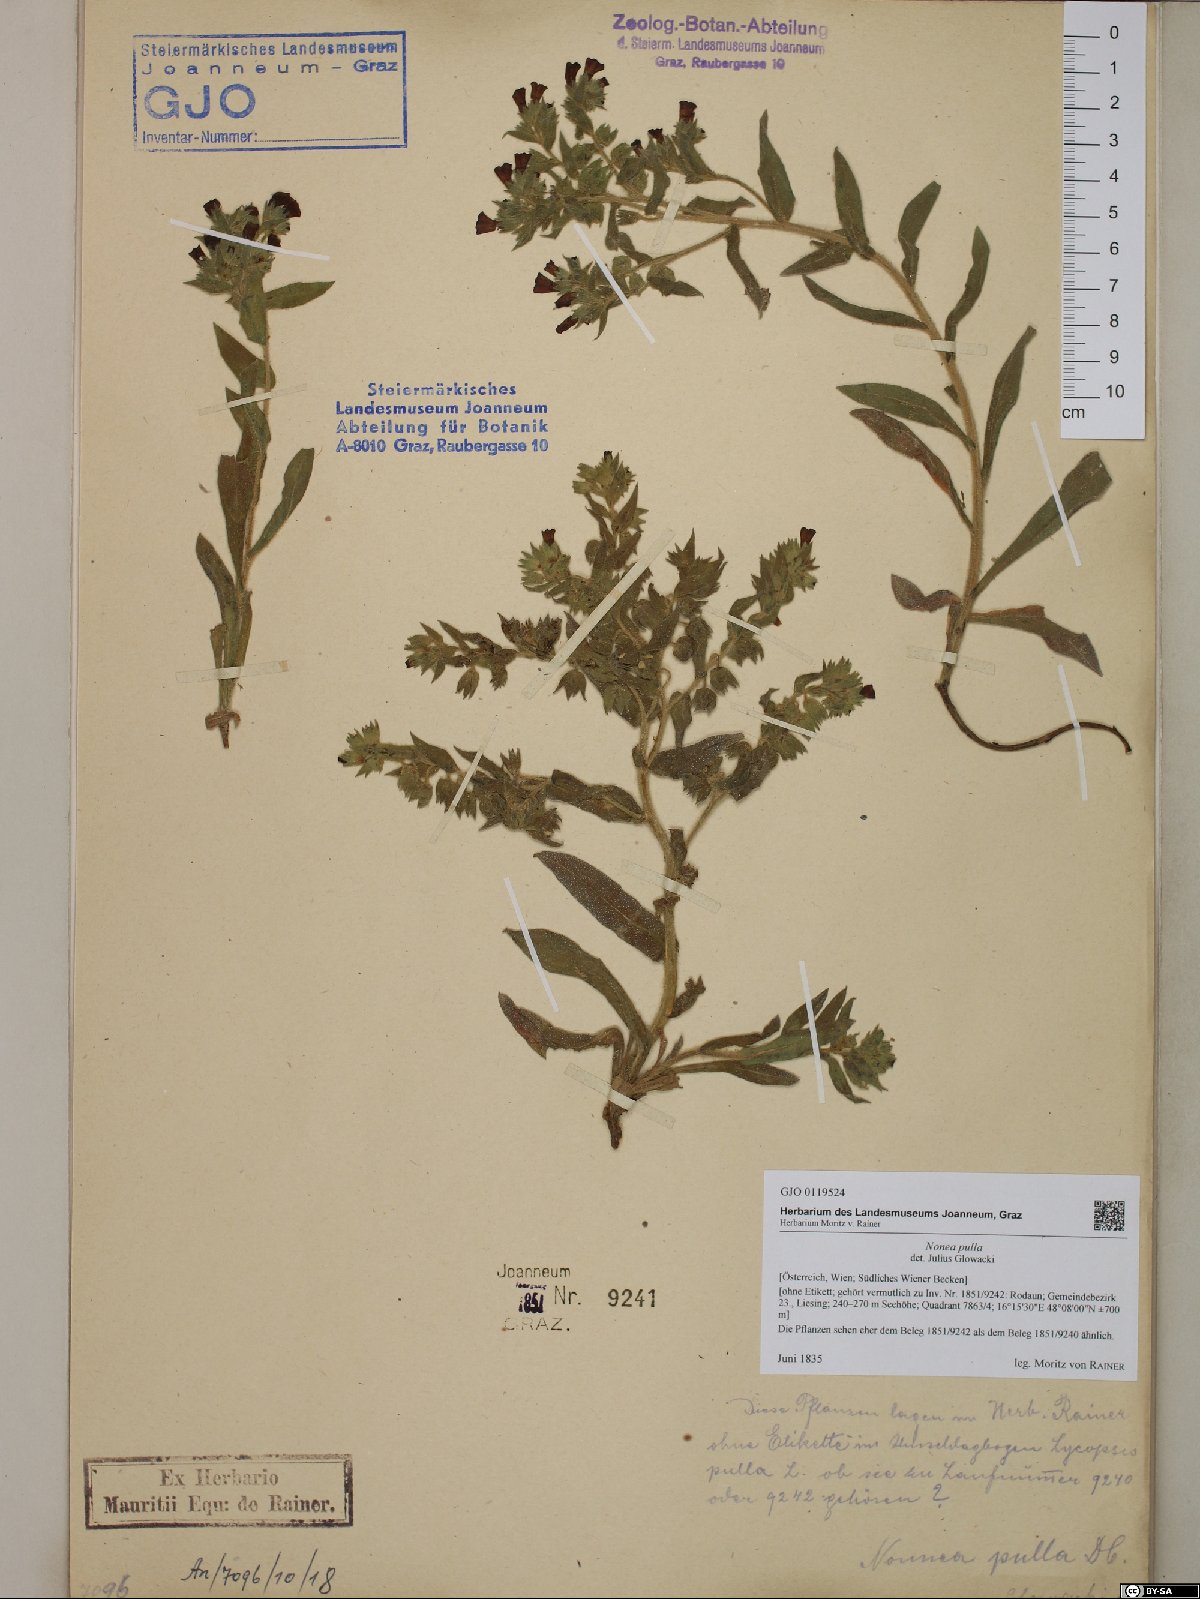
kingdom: Plantae
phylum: Tracheophyta
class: Magnoliopsida
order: Boraginales
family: Boraginaceae
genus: Nonea
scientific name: Nonea pulla
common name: Brown nonea
